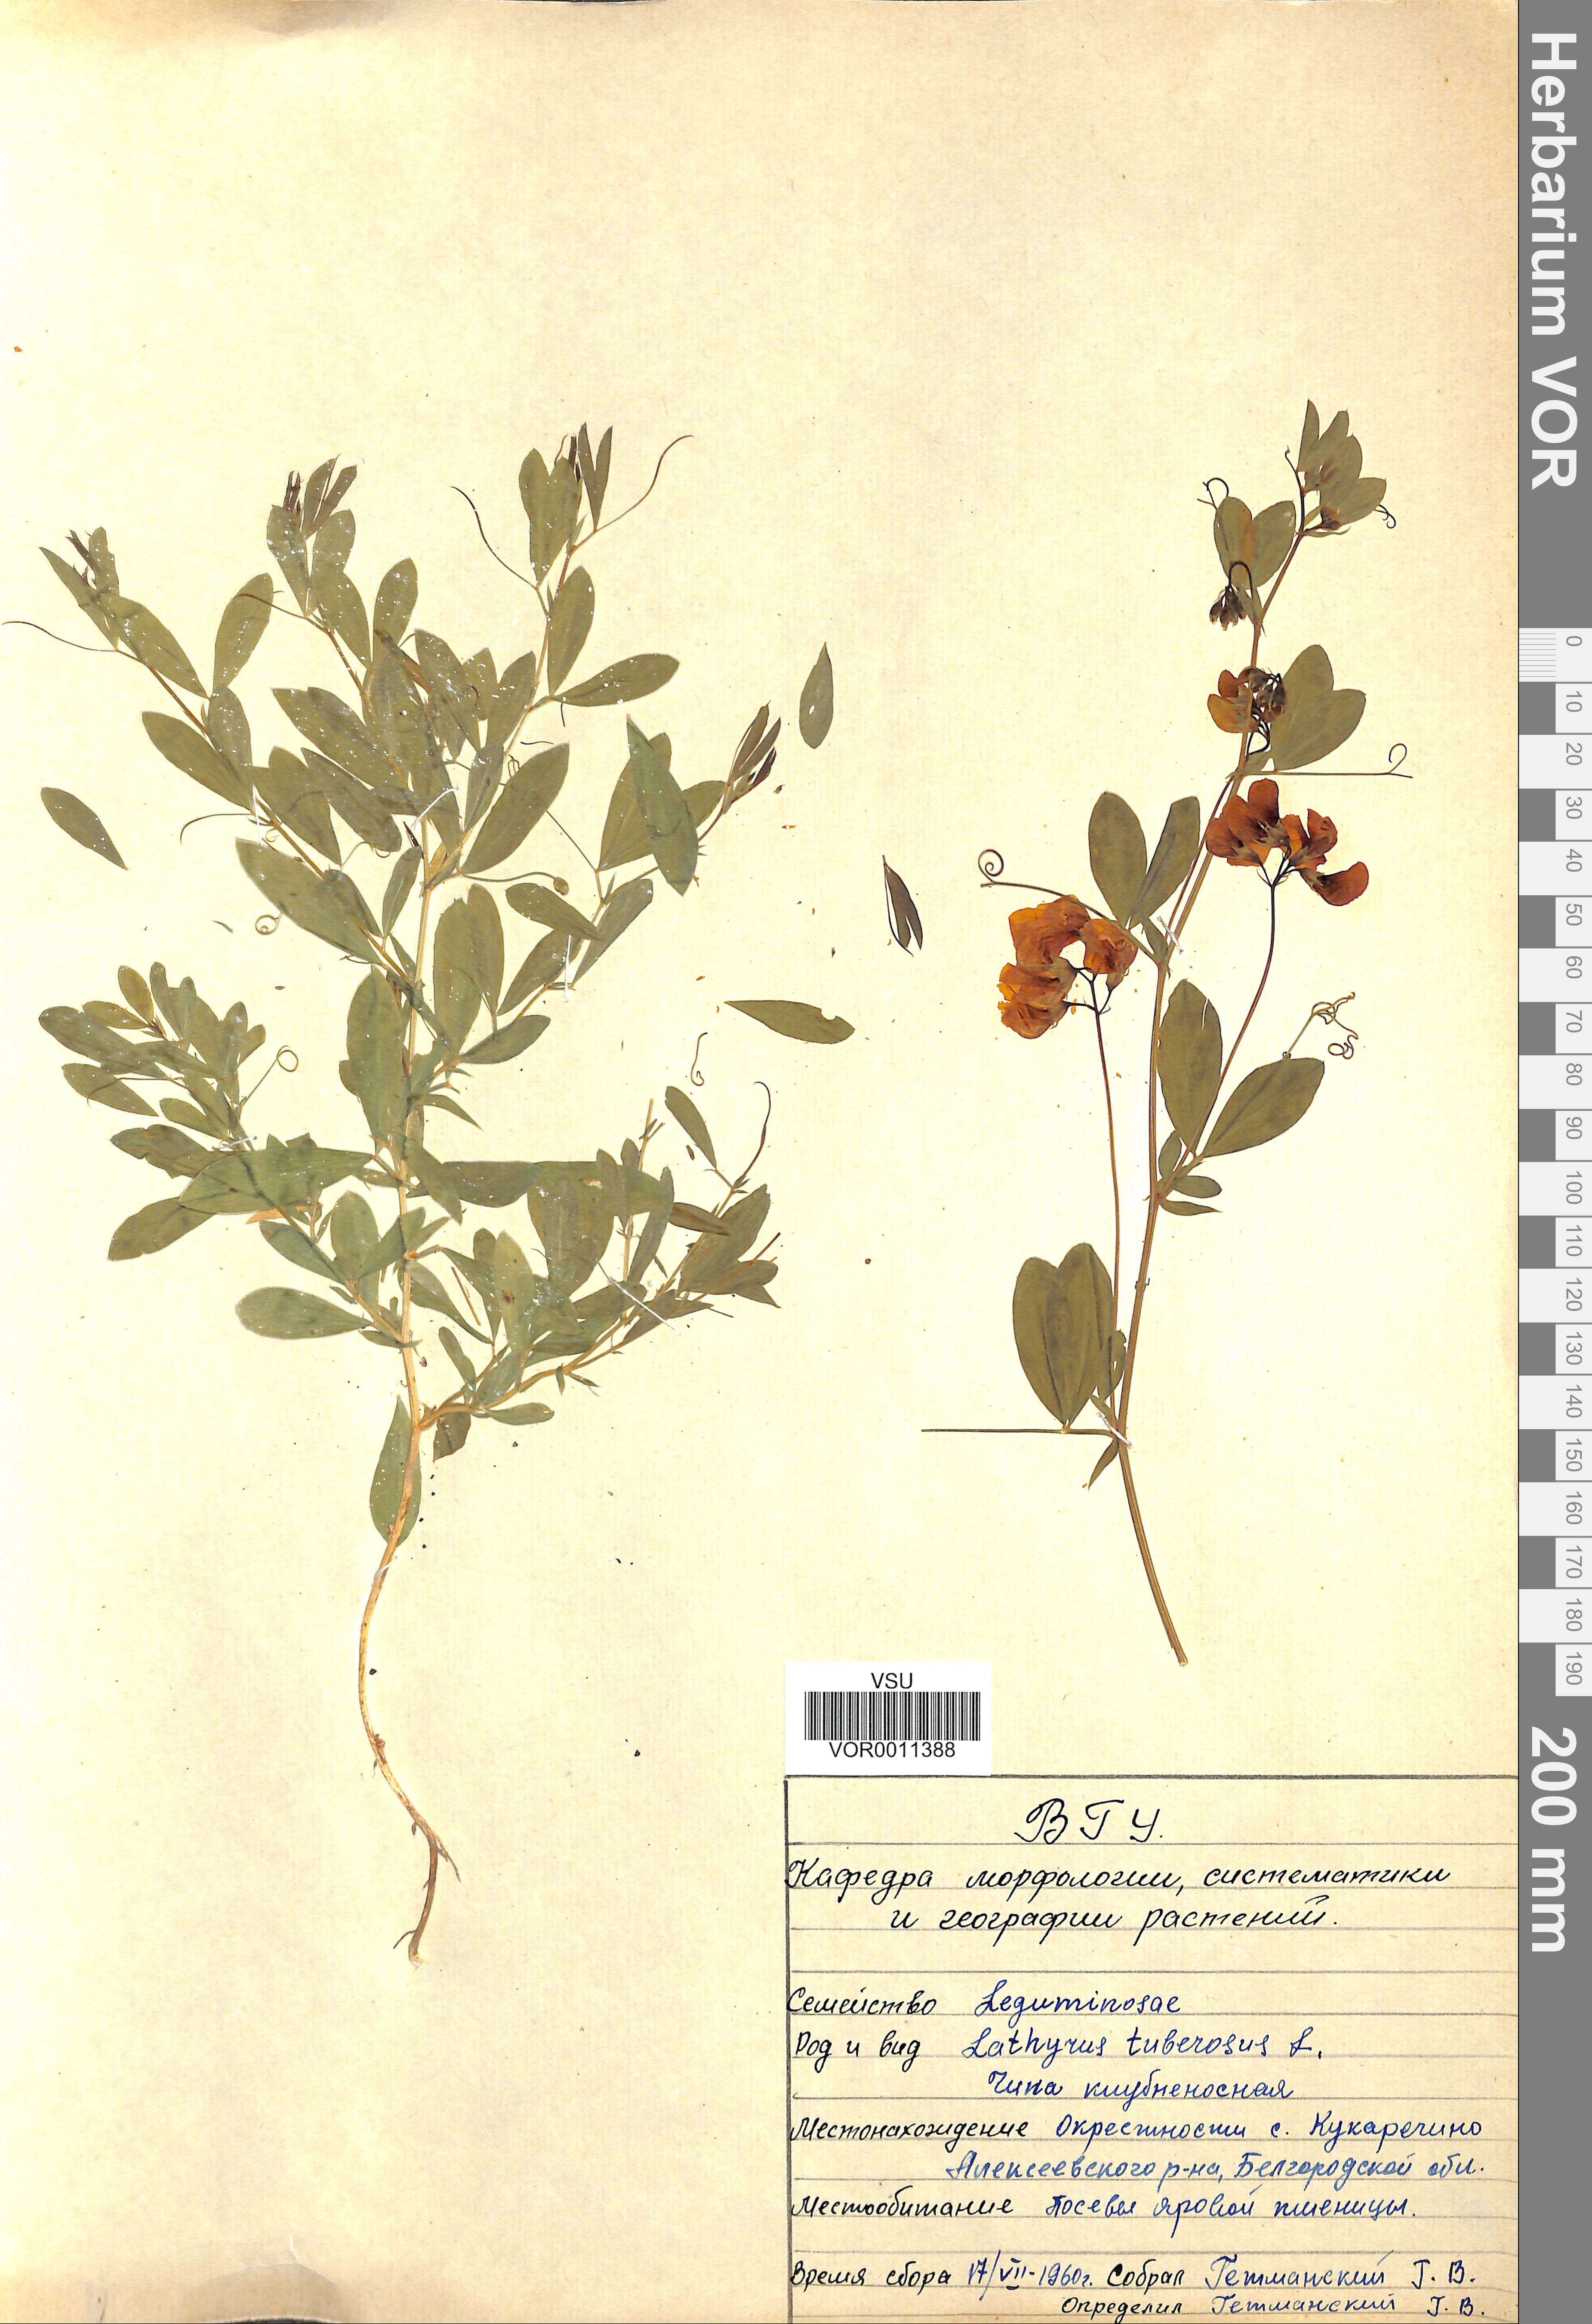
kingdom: Plantae
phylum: Tracheophyta
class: Magnoliopsida
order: Fabales
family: Fabaceae
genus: Lathyrus
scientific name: Lathyrus tuberosus
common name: Tuberous pea
